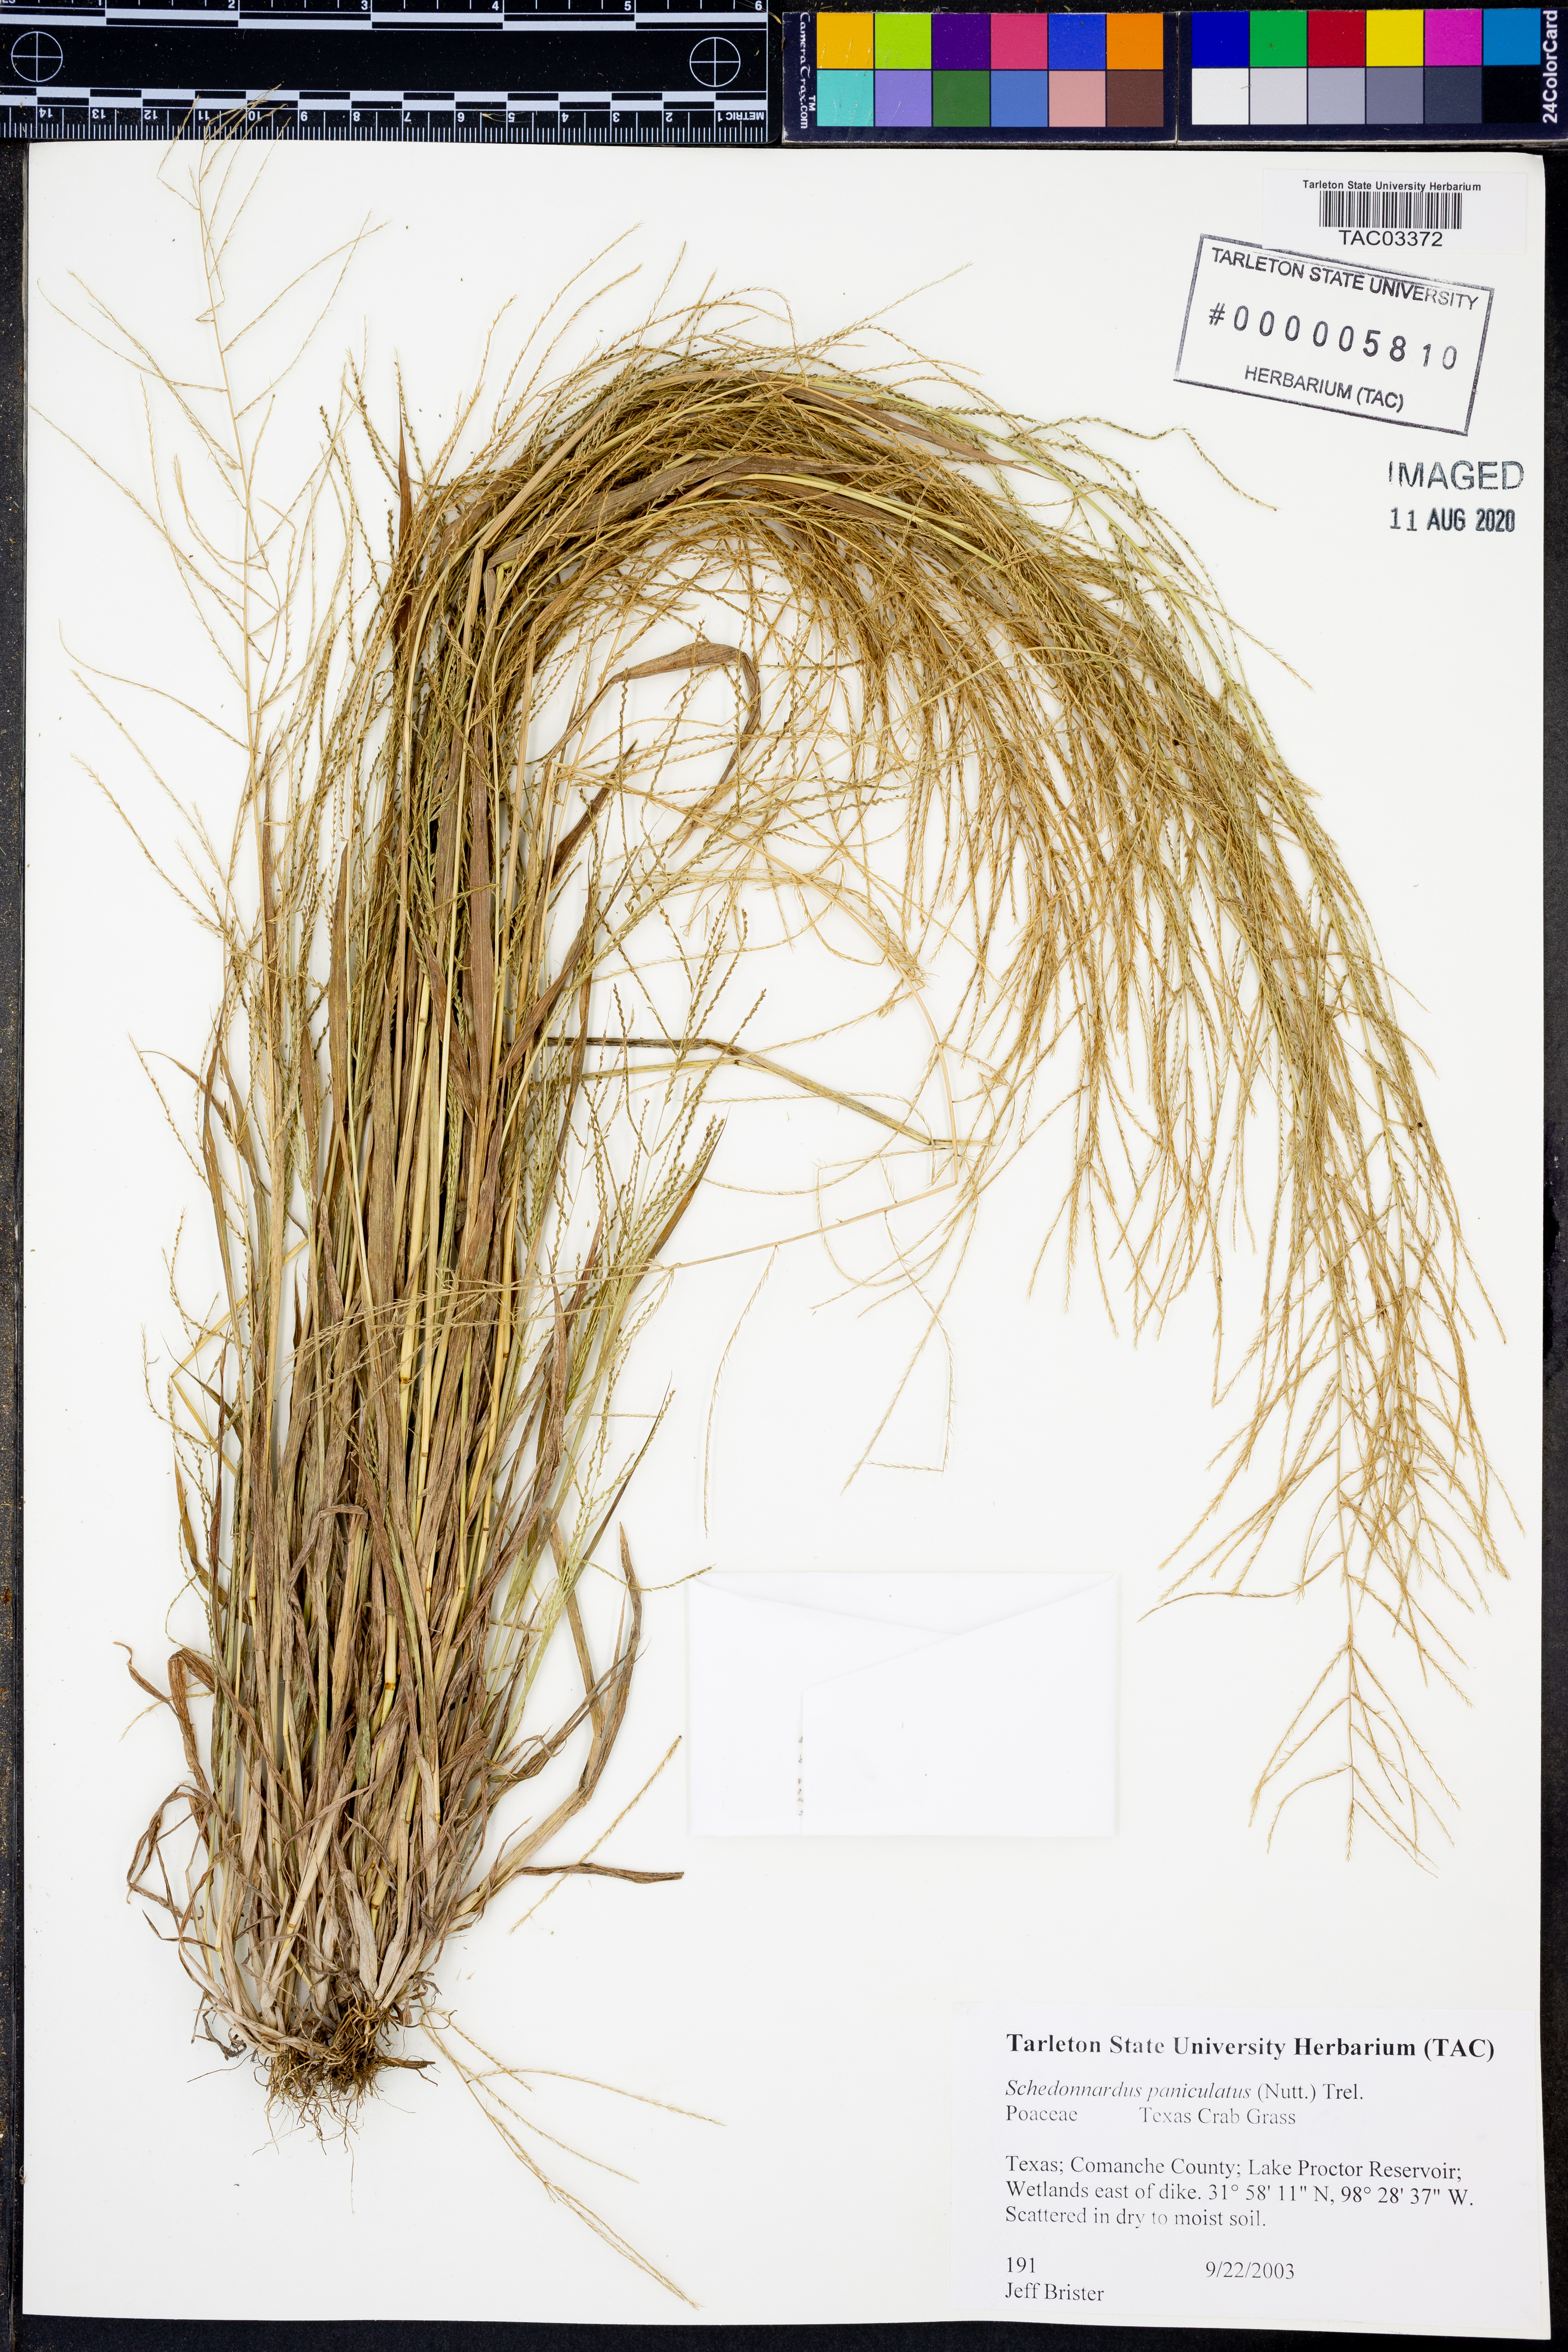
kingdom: Plantae
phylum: Tracheophyta
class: Liliopsida
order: Poales
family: Poaceae
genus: Muhlenbergia
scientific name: Muhlenbergia paniculata
